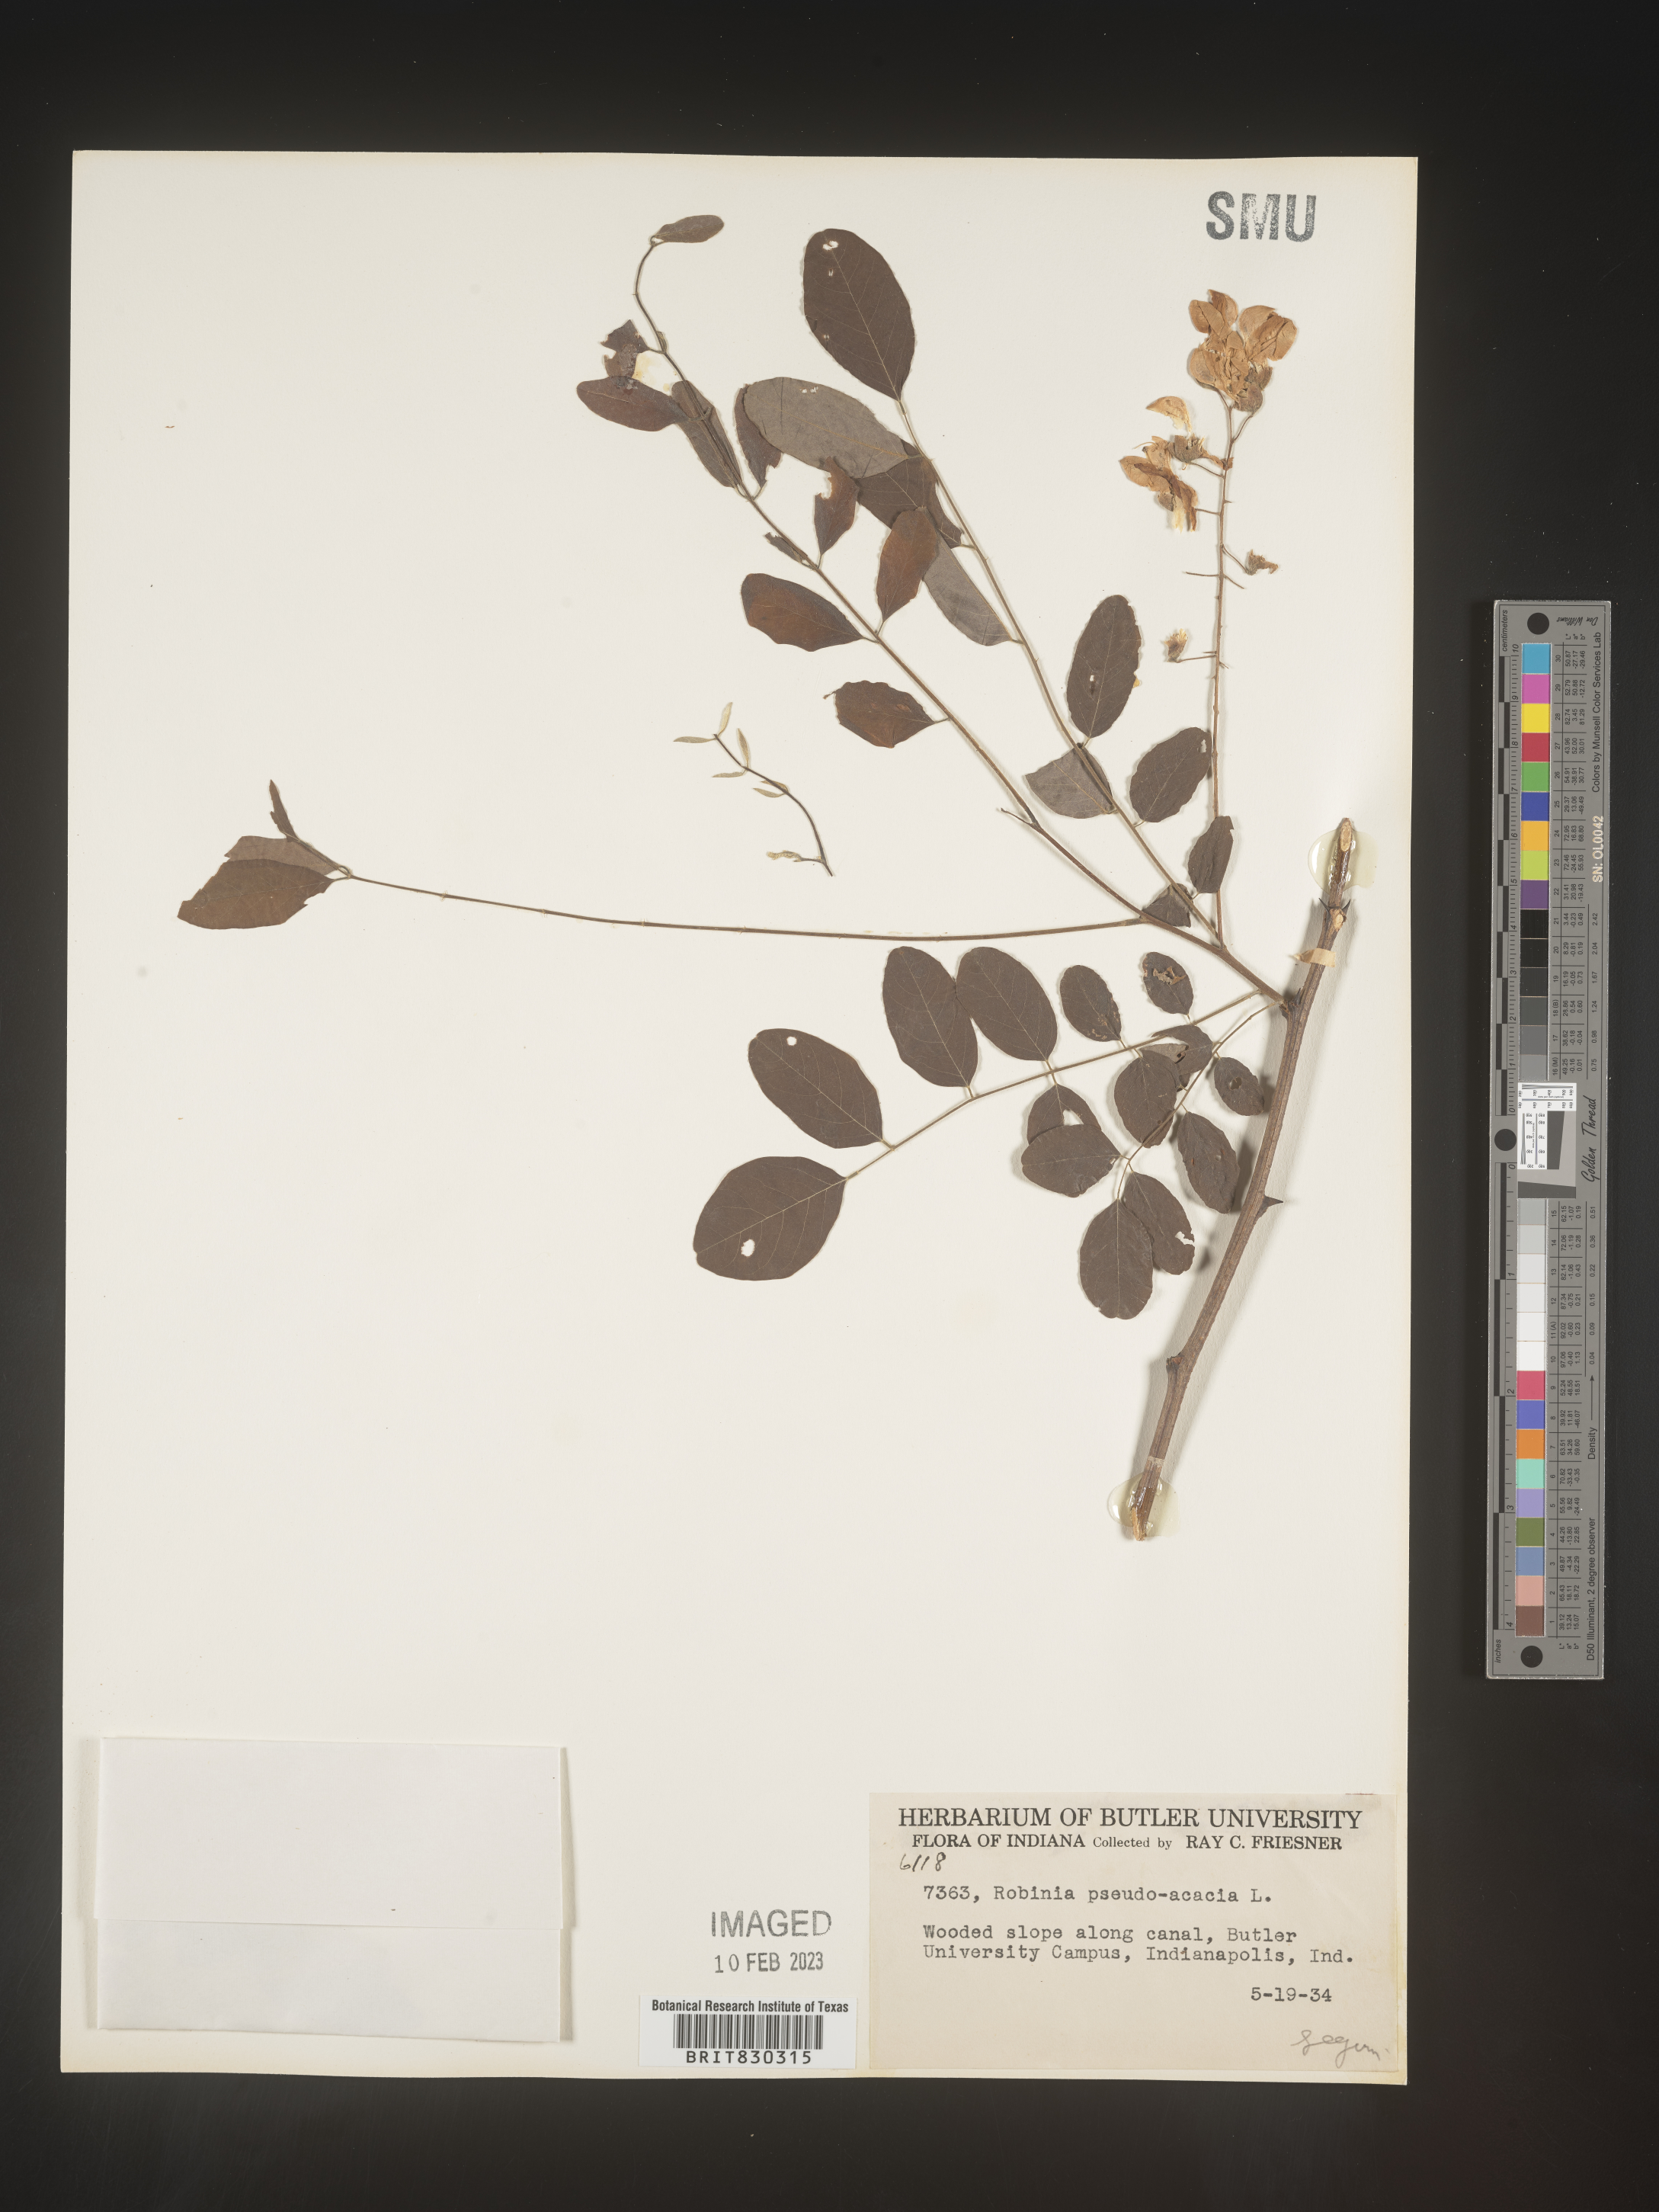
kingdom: Plantae
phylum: Tracheophyta
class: Magnoliopsida
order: Fabales
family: Fabaceae
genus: Robinia
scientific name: Robinia pseudoacacia
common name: Black locust
